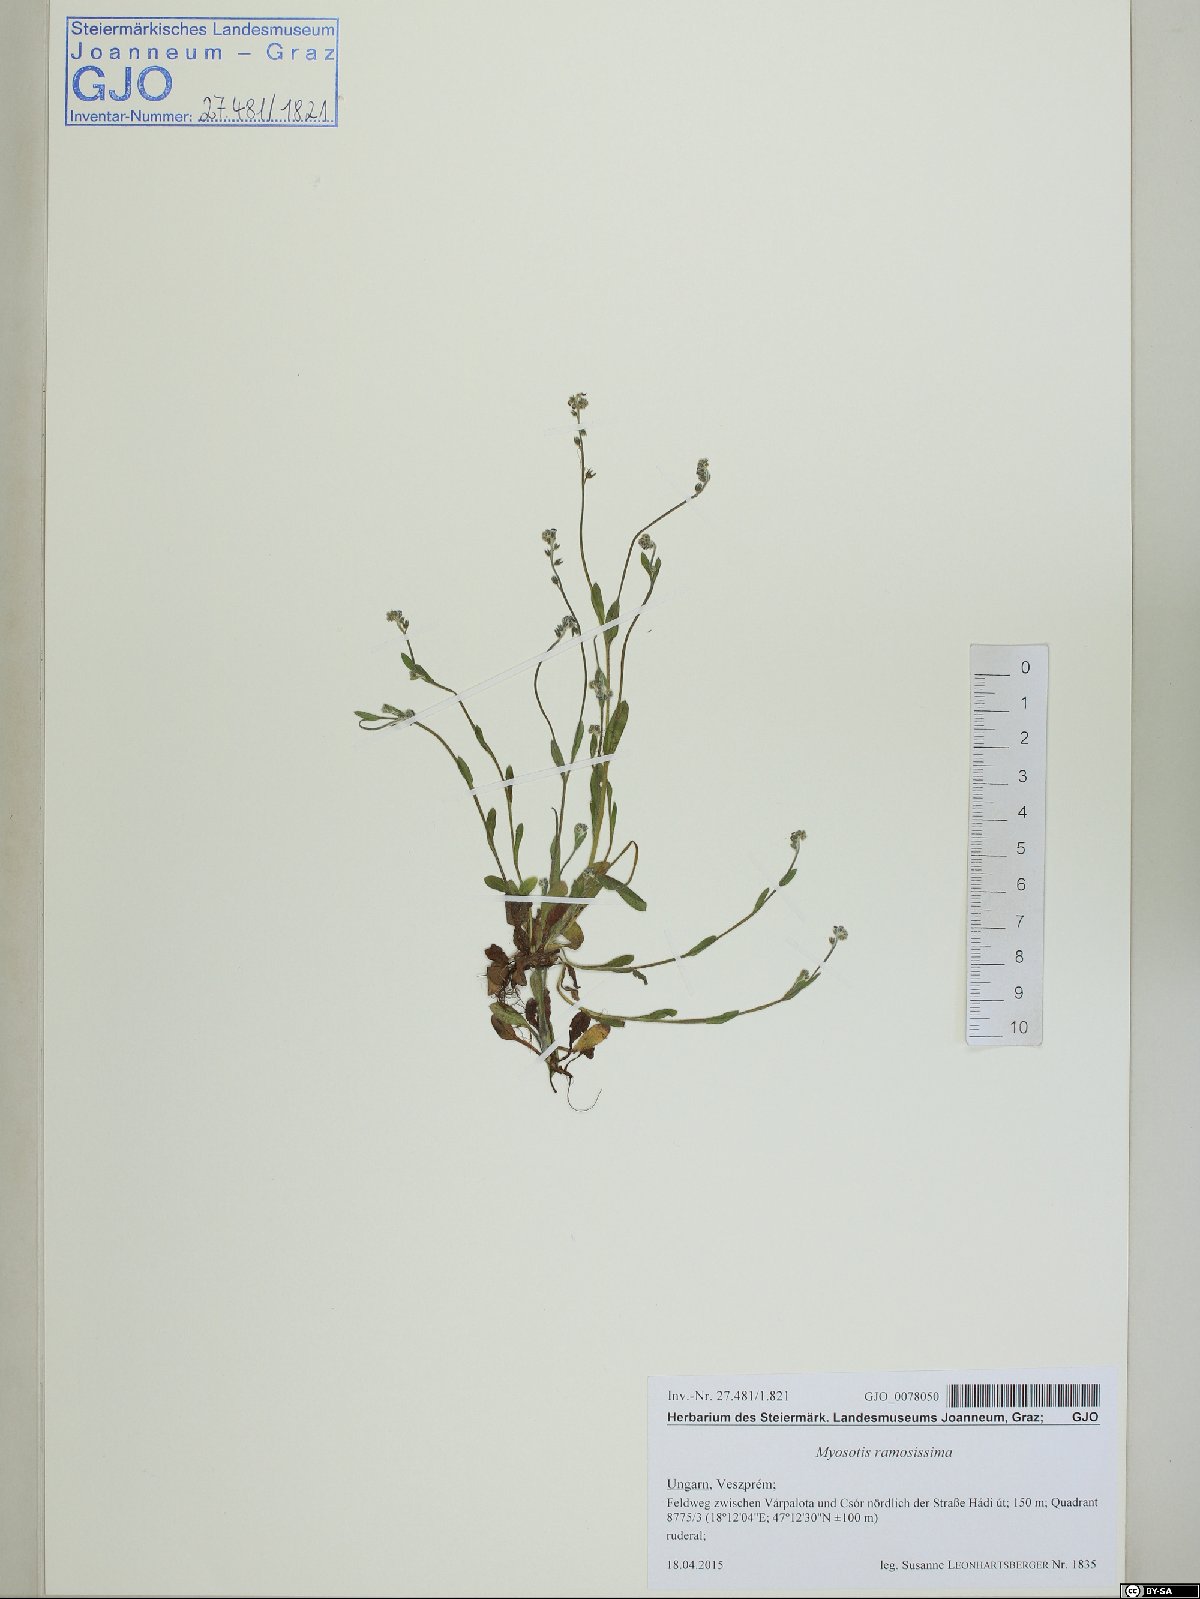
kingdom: Plantae
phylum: Tracheophyta
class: Magnoliopsida
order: Boraginales
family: Boraginaceae
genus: Myosotis
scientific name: Myosotis ramosissima
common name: Early forget-me-not
